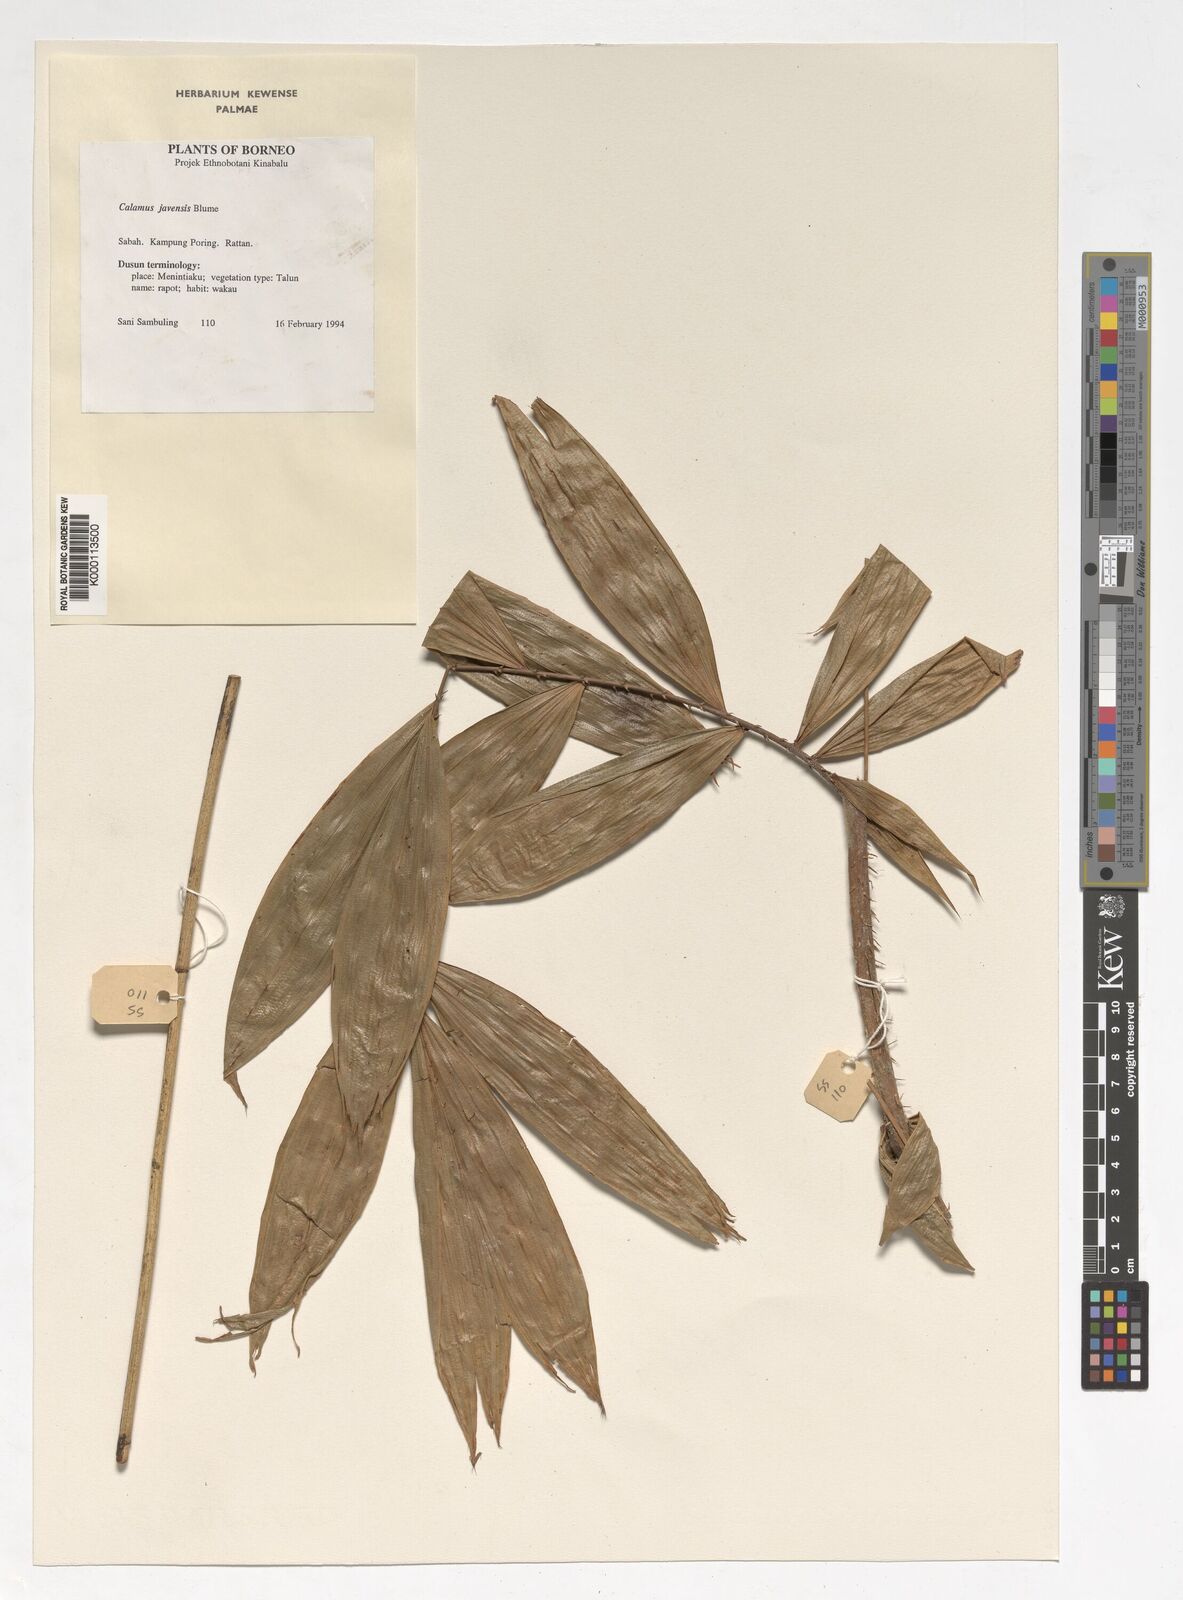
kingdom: Plantae
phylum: Tracheophyta
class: Liliopsida
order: Arecales
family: Arecaceae
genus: Calamus
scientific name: Calamus javensis
